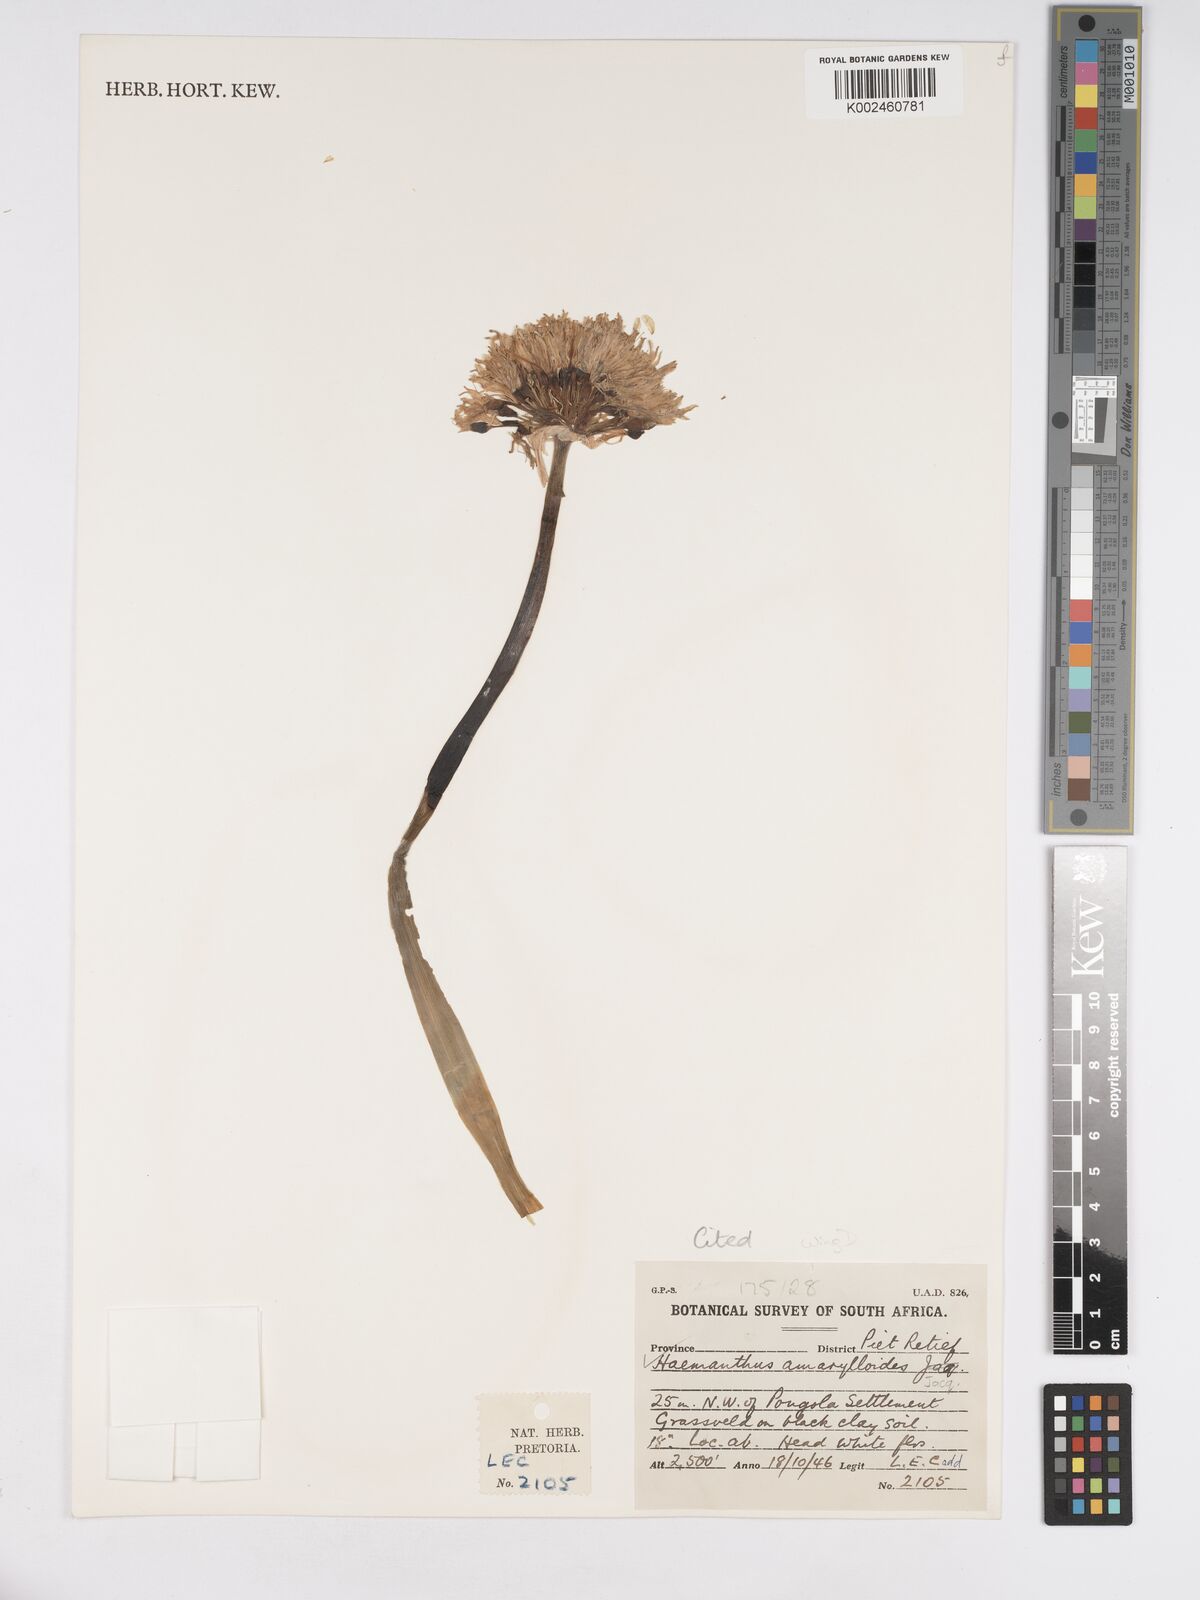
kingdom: Plantae
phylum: Tracheophyta
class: Liliopsida
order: Asparagales
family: Amaryllidaceae
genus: Haemanthus
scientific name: Haemanthus montanus
